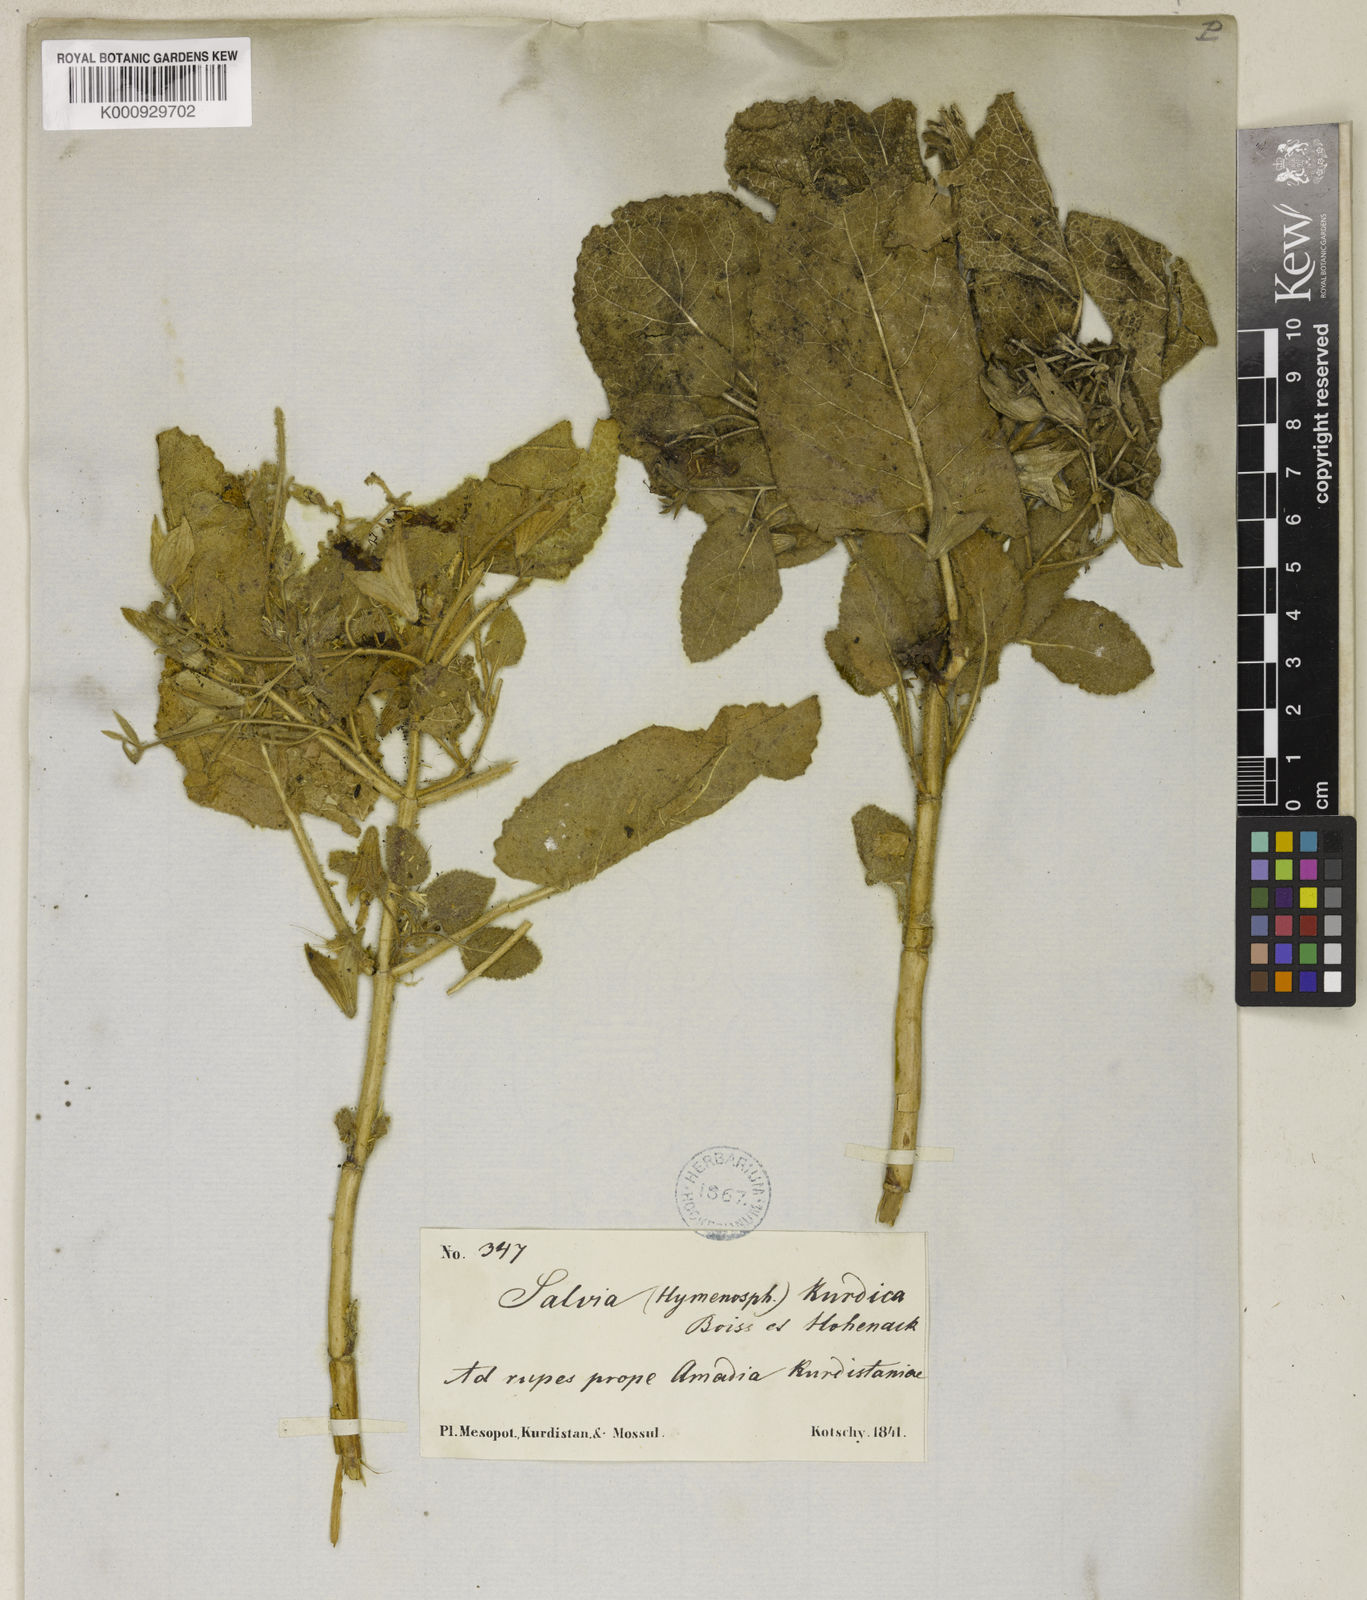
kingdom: Plantae
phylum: Tracheophyta
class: Magnoliopsida
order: Lamiales
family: Lamiaceae
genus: Salvia
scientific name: Salvia kurdica
